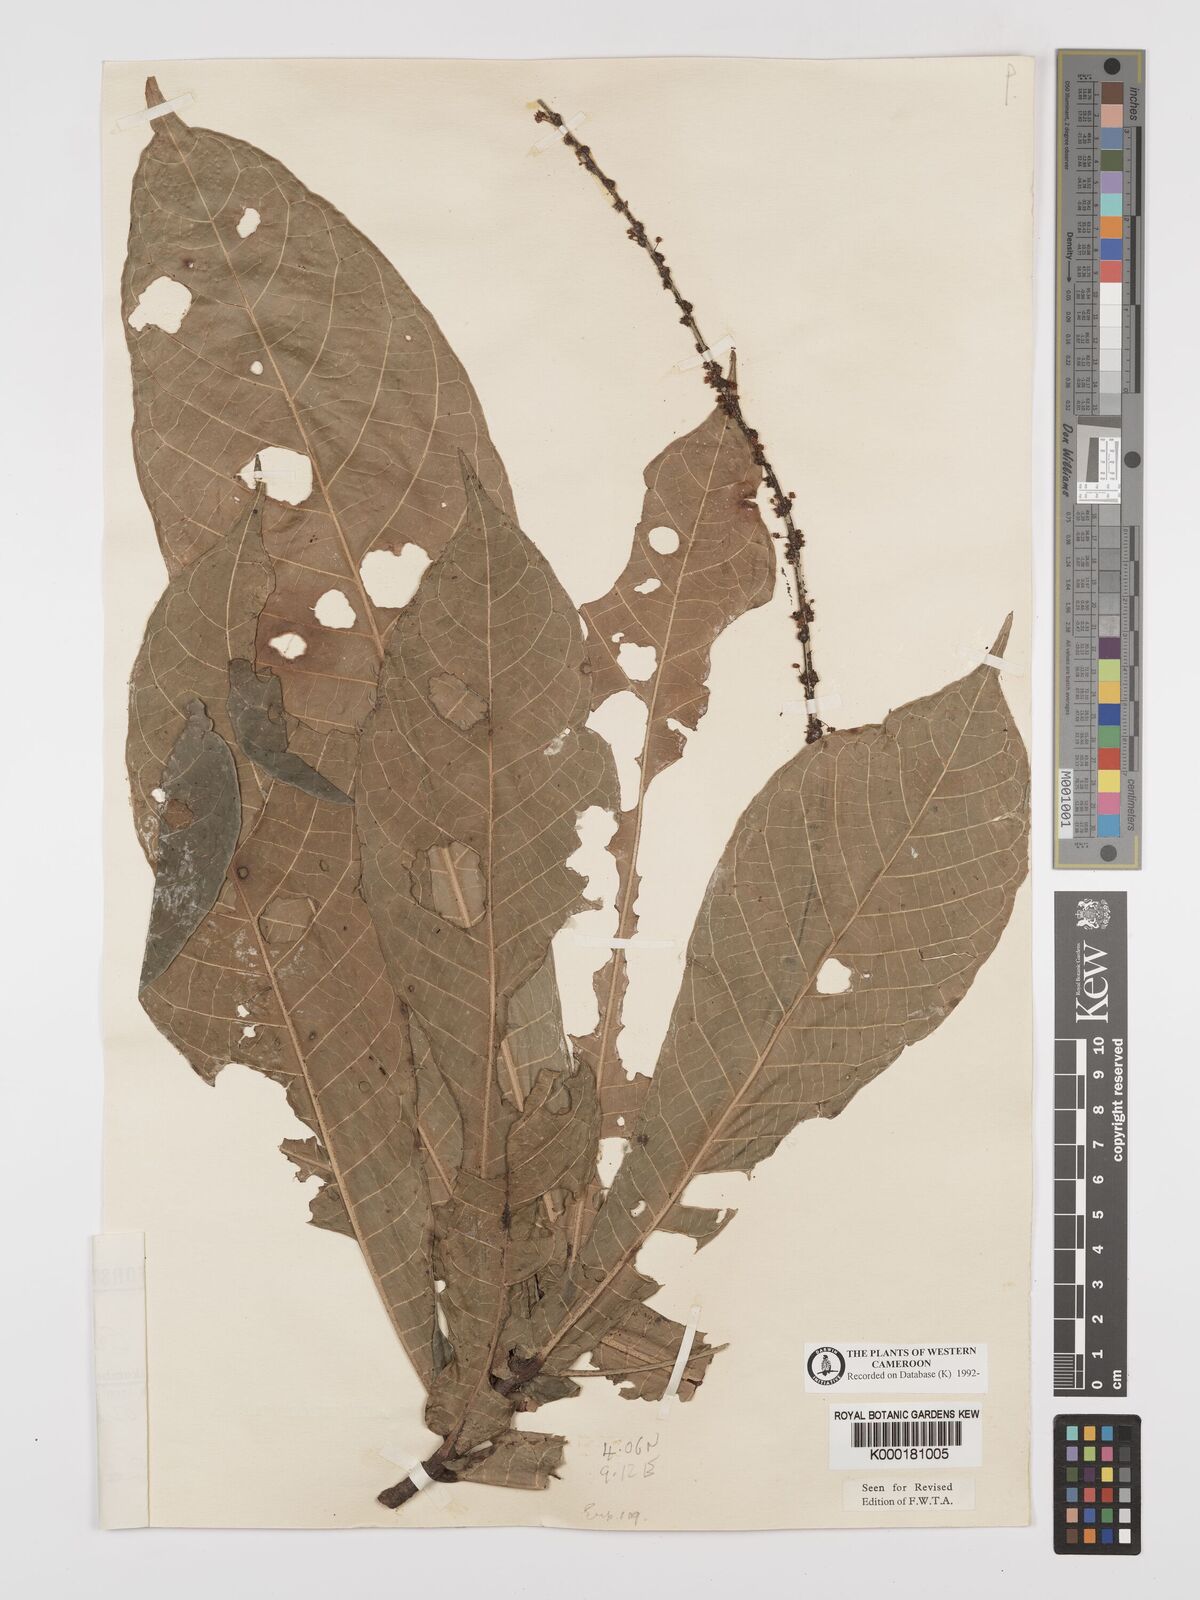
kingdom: Plantae
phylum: Tracheophyta
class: Magnoliopsida
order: Malpighiales
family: Euphorbiaceae
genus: Crotonogyne
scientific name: Crotonogyne preussii
